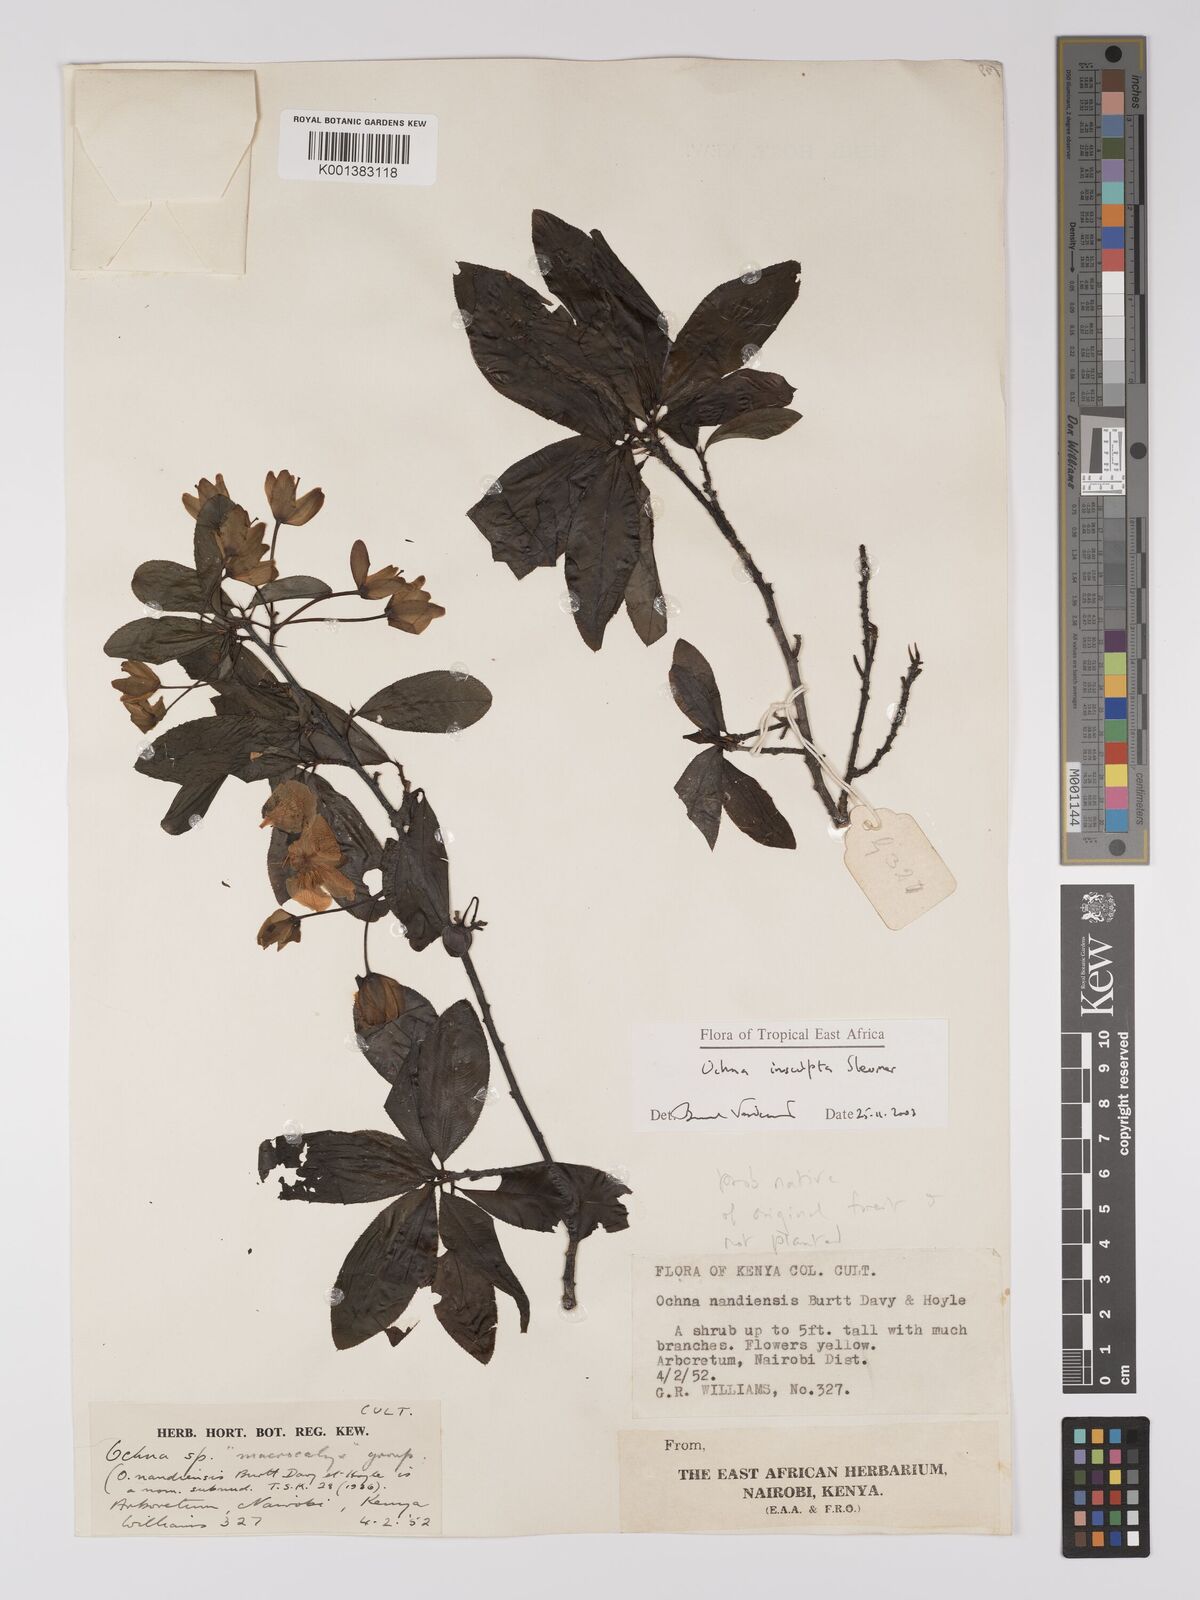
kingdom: Plantae
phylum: Tracheophyta
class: Magnoliopsida
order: Malpighiales
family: Ochnaceae
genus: Ochna
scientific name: Ochna insculpta
